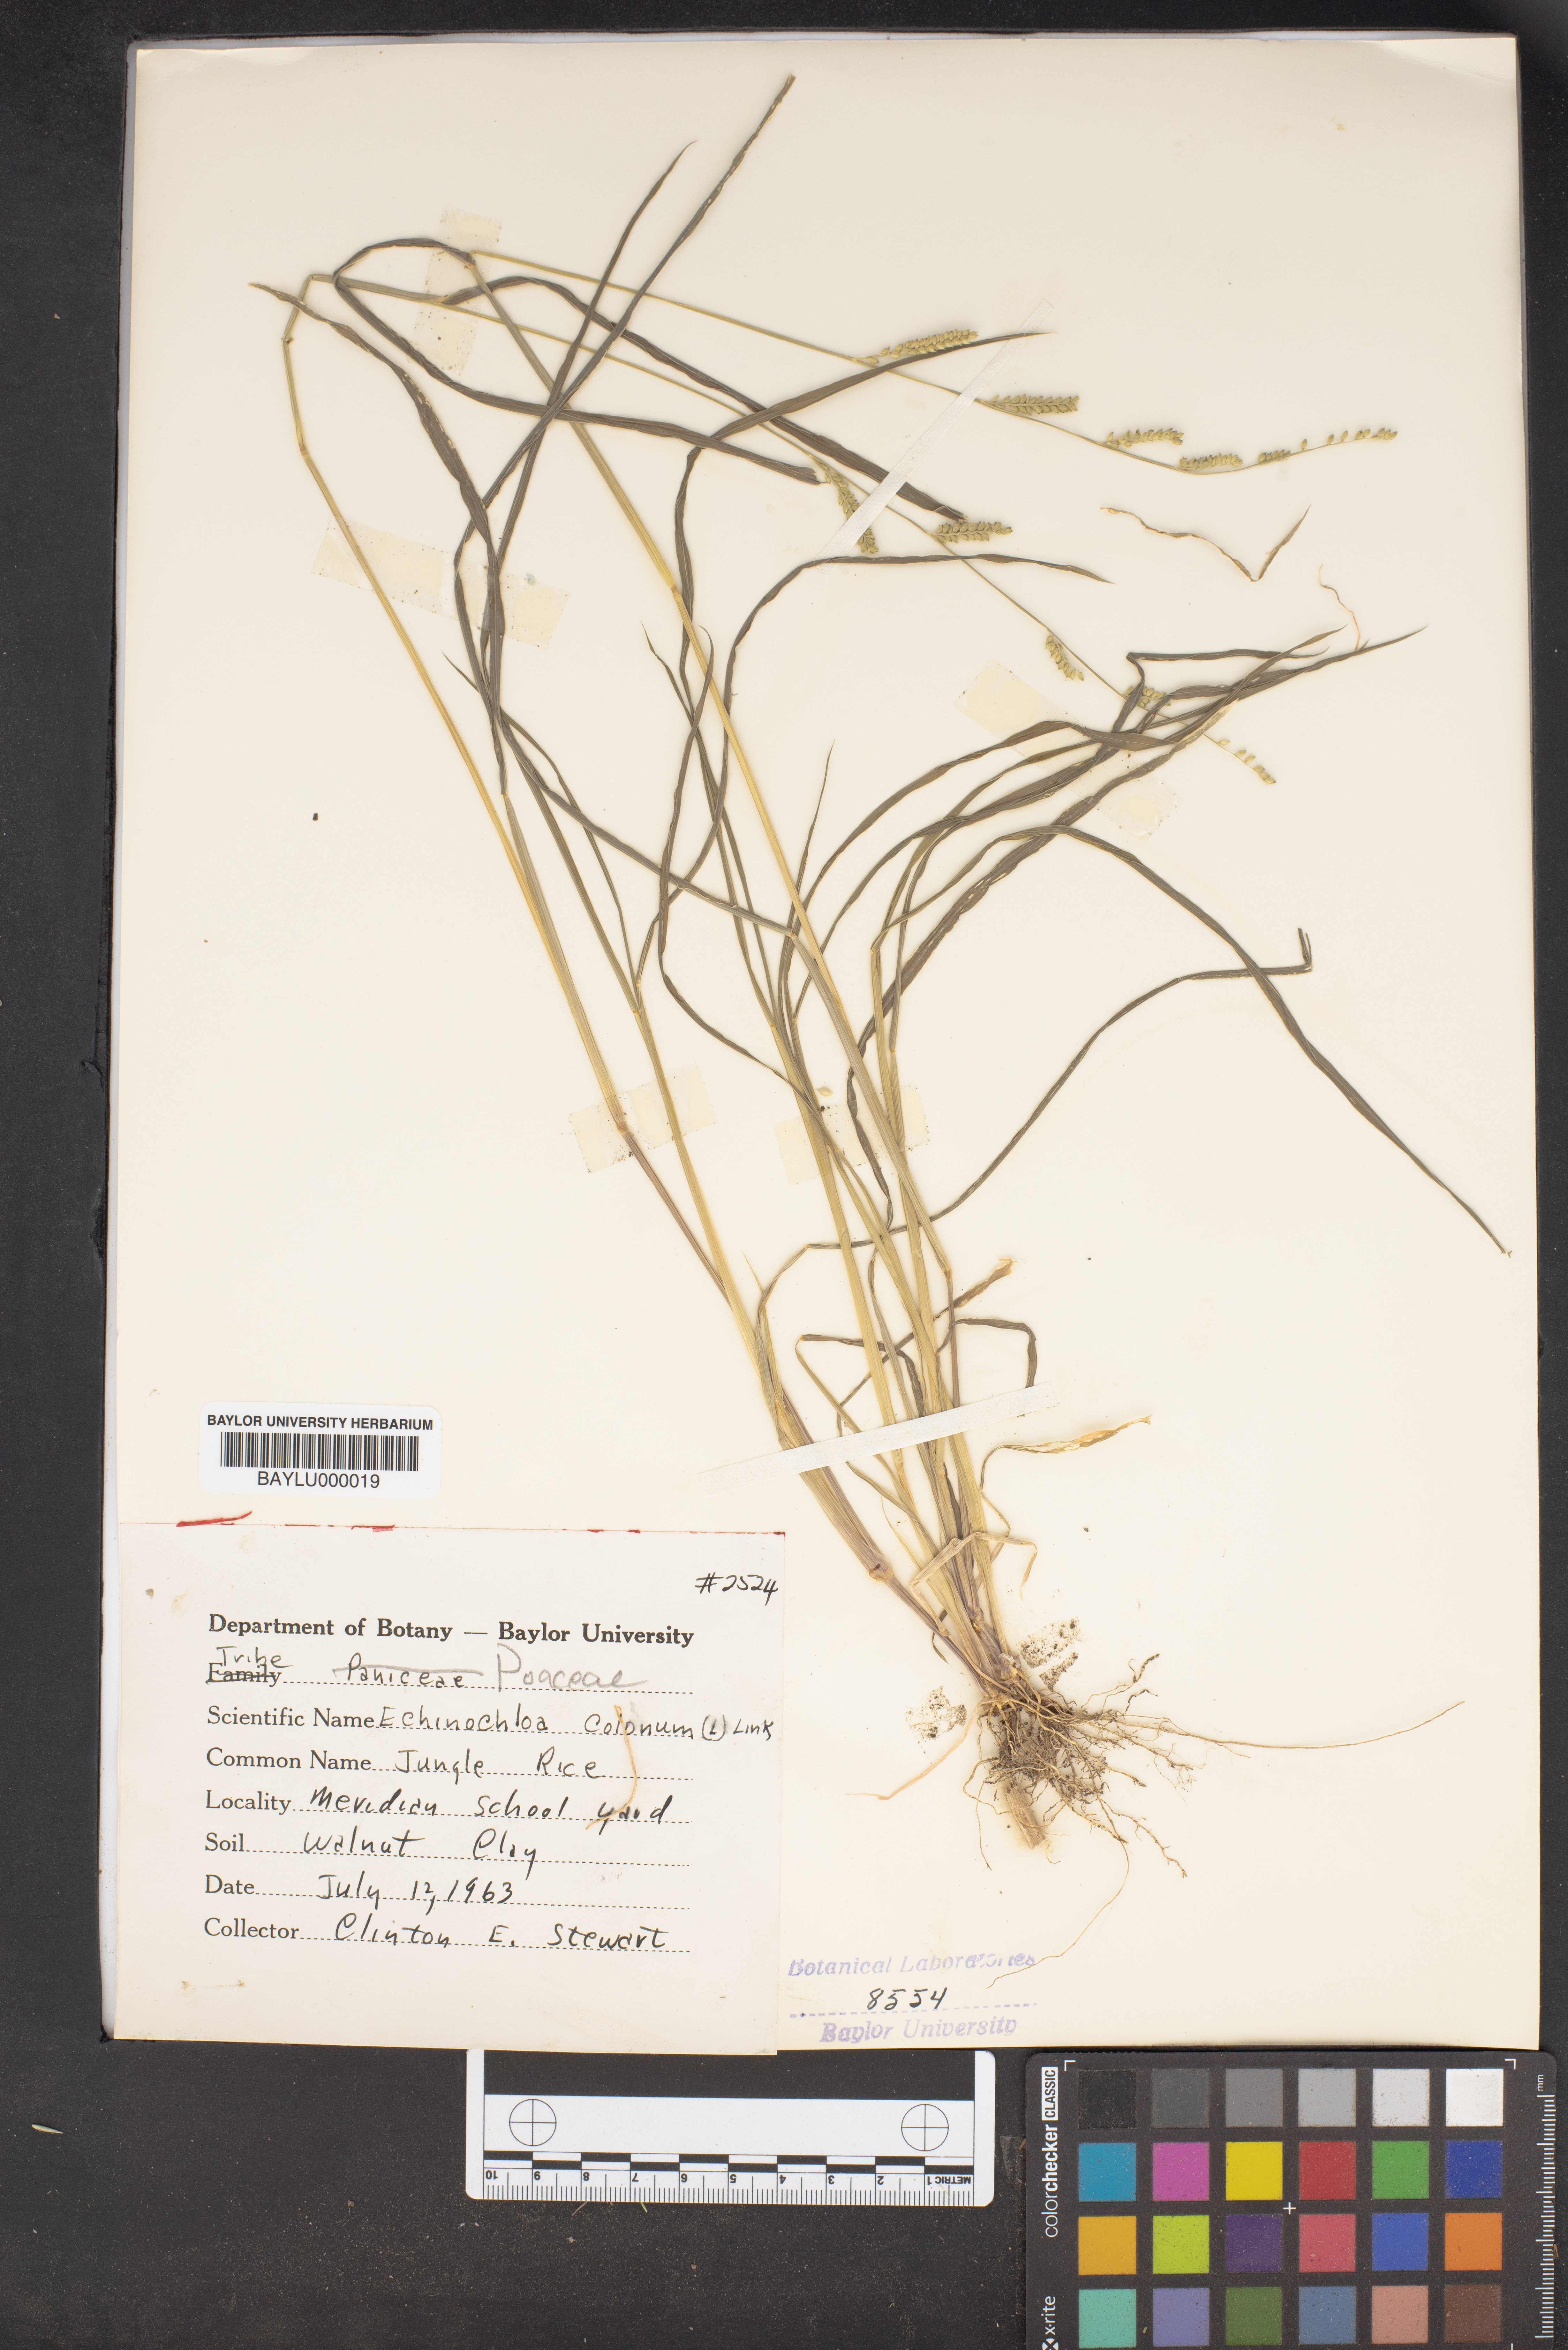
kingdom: Plantae
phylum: Tracheophyta
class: Liliopsida
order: Poales
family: Poaceae
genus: Echinochloa
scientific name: Echinochloa colonum
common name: Jungle rice
